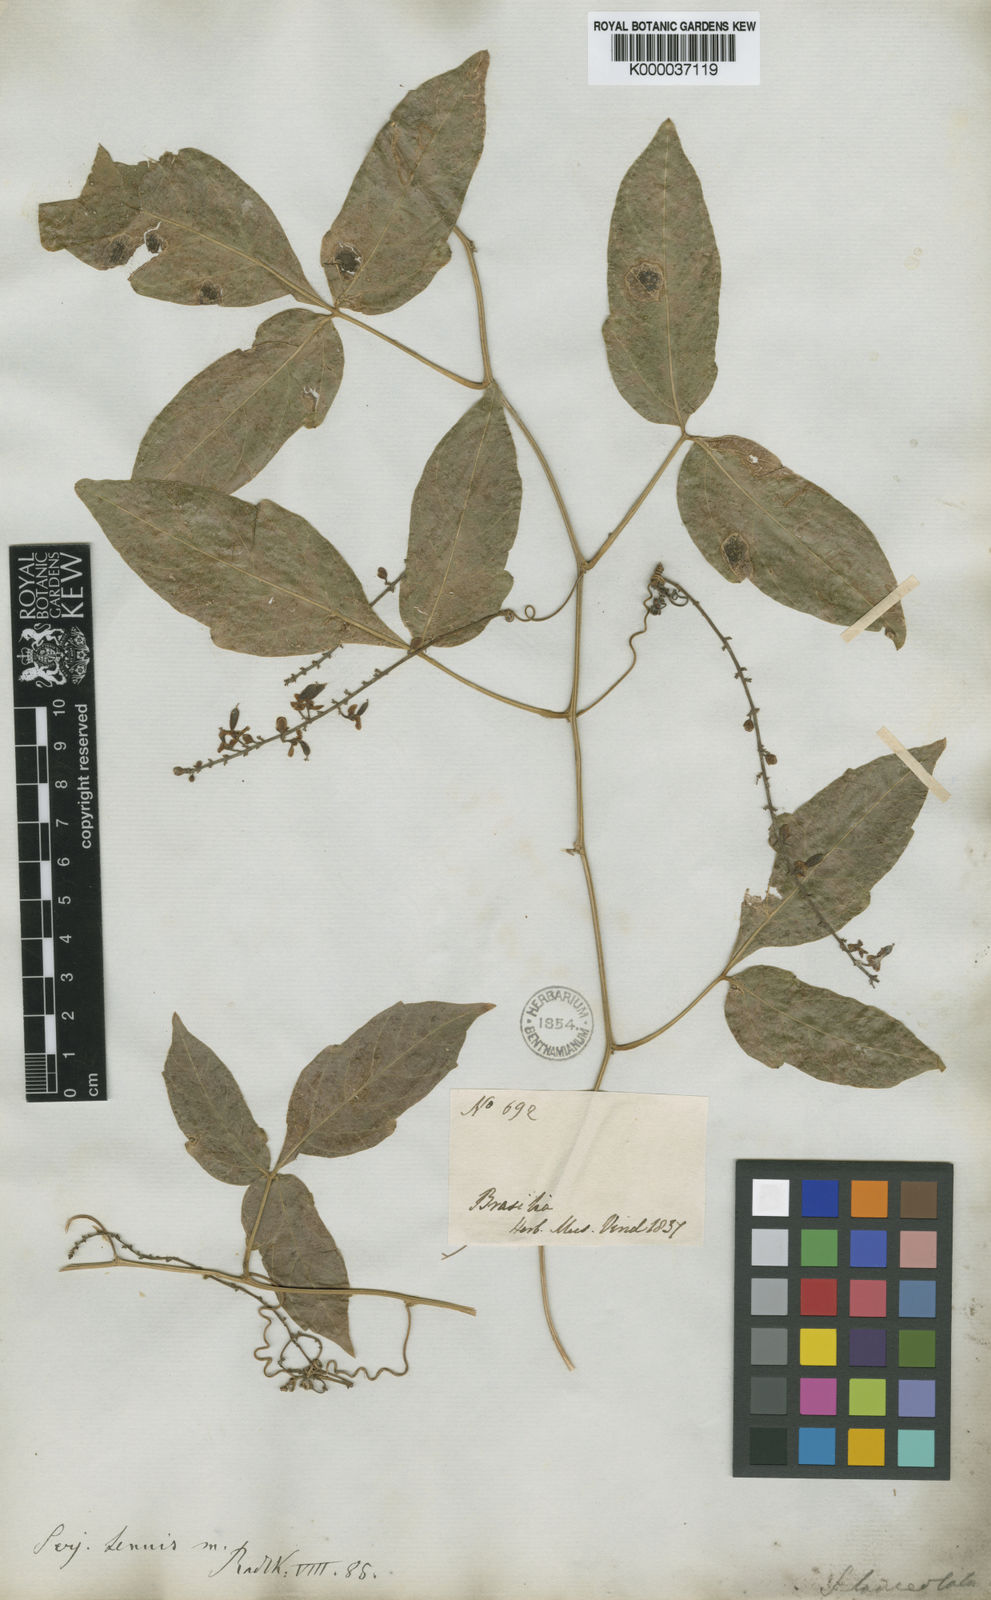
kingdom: Plantae
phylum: Tracheophyta
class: Magnoliopsida
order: Sapindales
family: Sapindaceae
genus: Serjania
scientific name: Serjania tenuis
